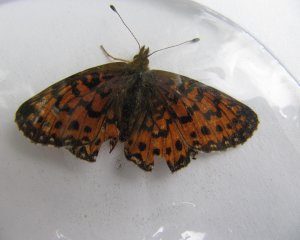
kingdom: Animalia
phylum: Arthropoda
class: Insecta
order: Lepidoptera
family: Nymphalidae
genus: Boloria
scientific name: Boloria selene
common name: Silver-bordered Fritillary
